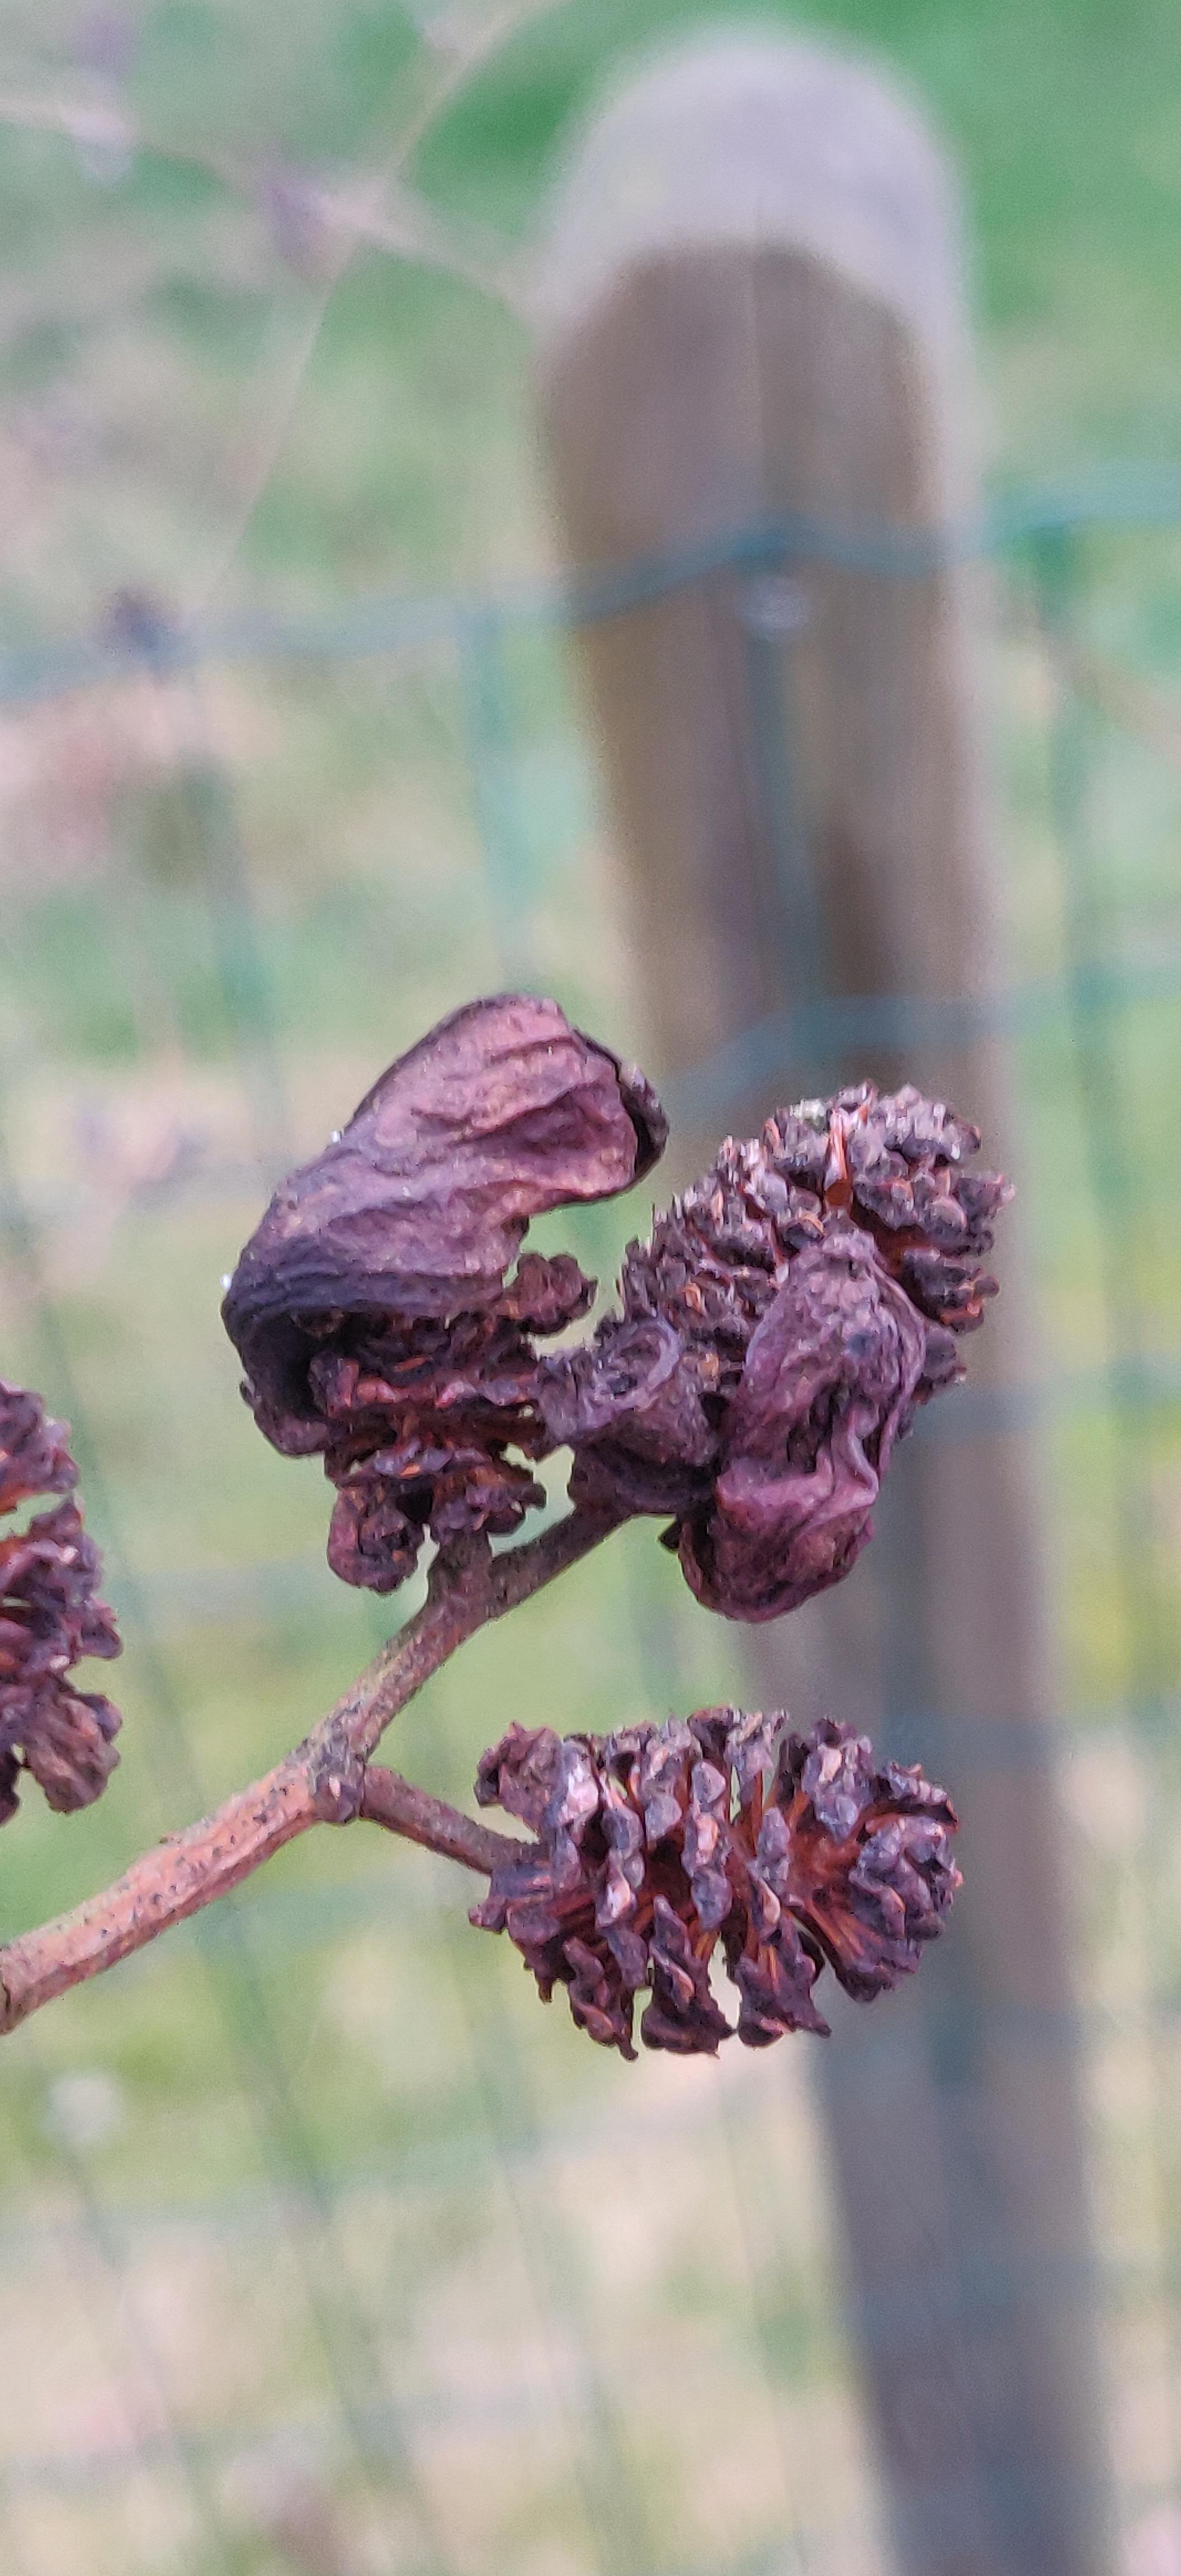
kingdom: Fungi
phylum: Ascomycota
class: Taphrinomycetes
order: Taphrinales
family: Taphrinaceae
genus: Taphrina
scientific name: Taphrina alni
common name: Alder tongue
